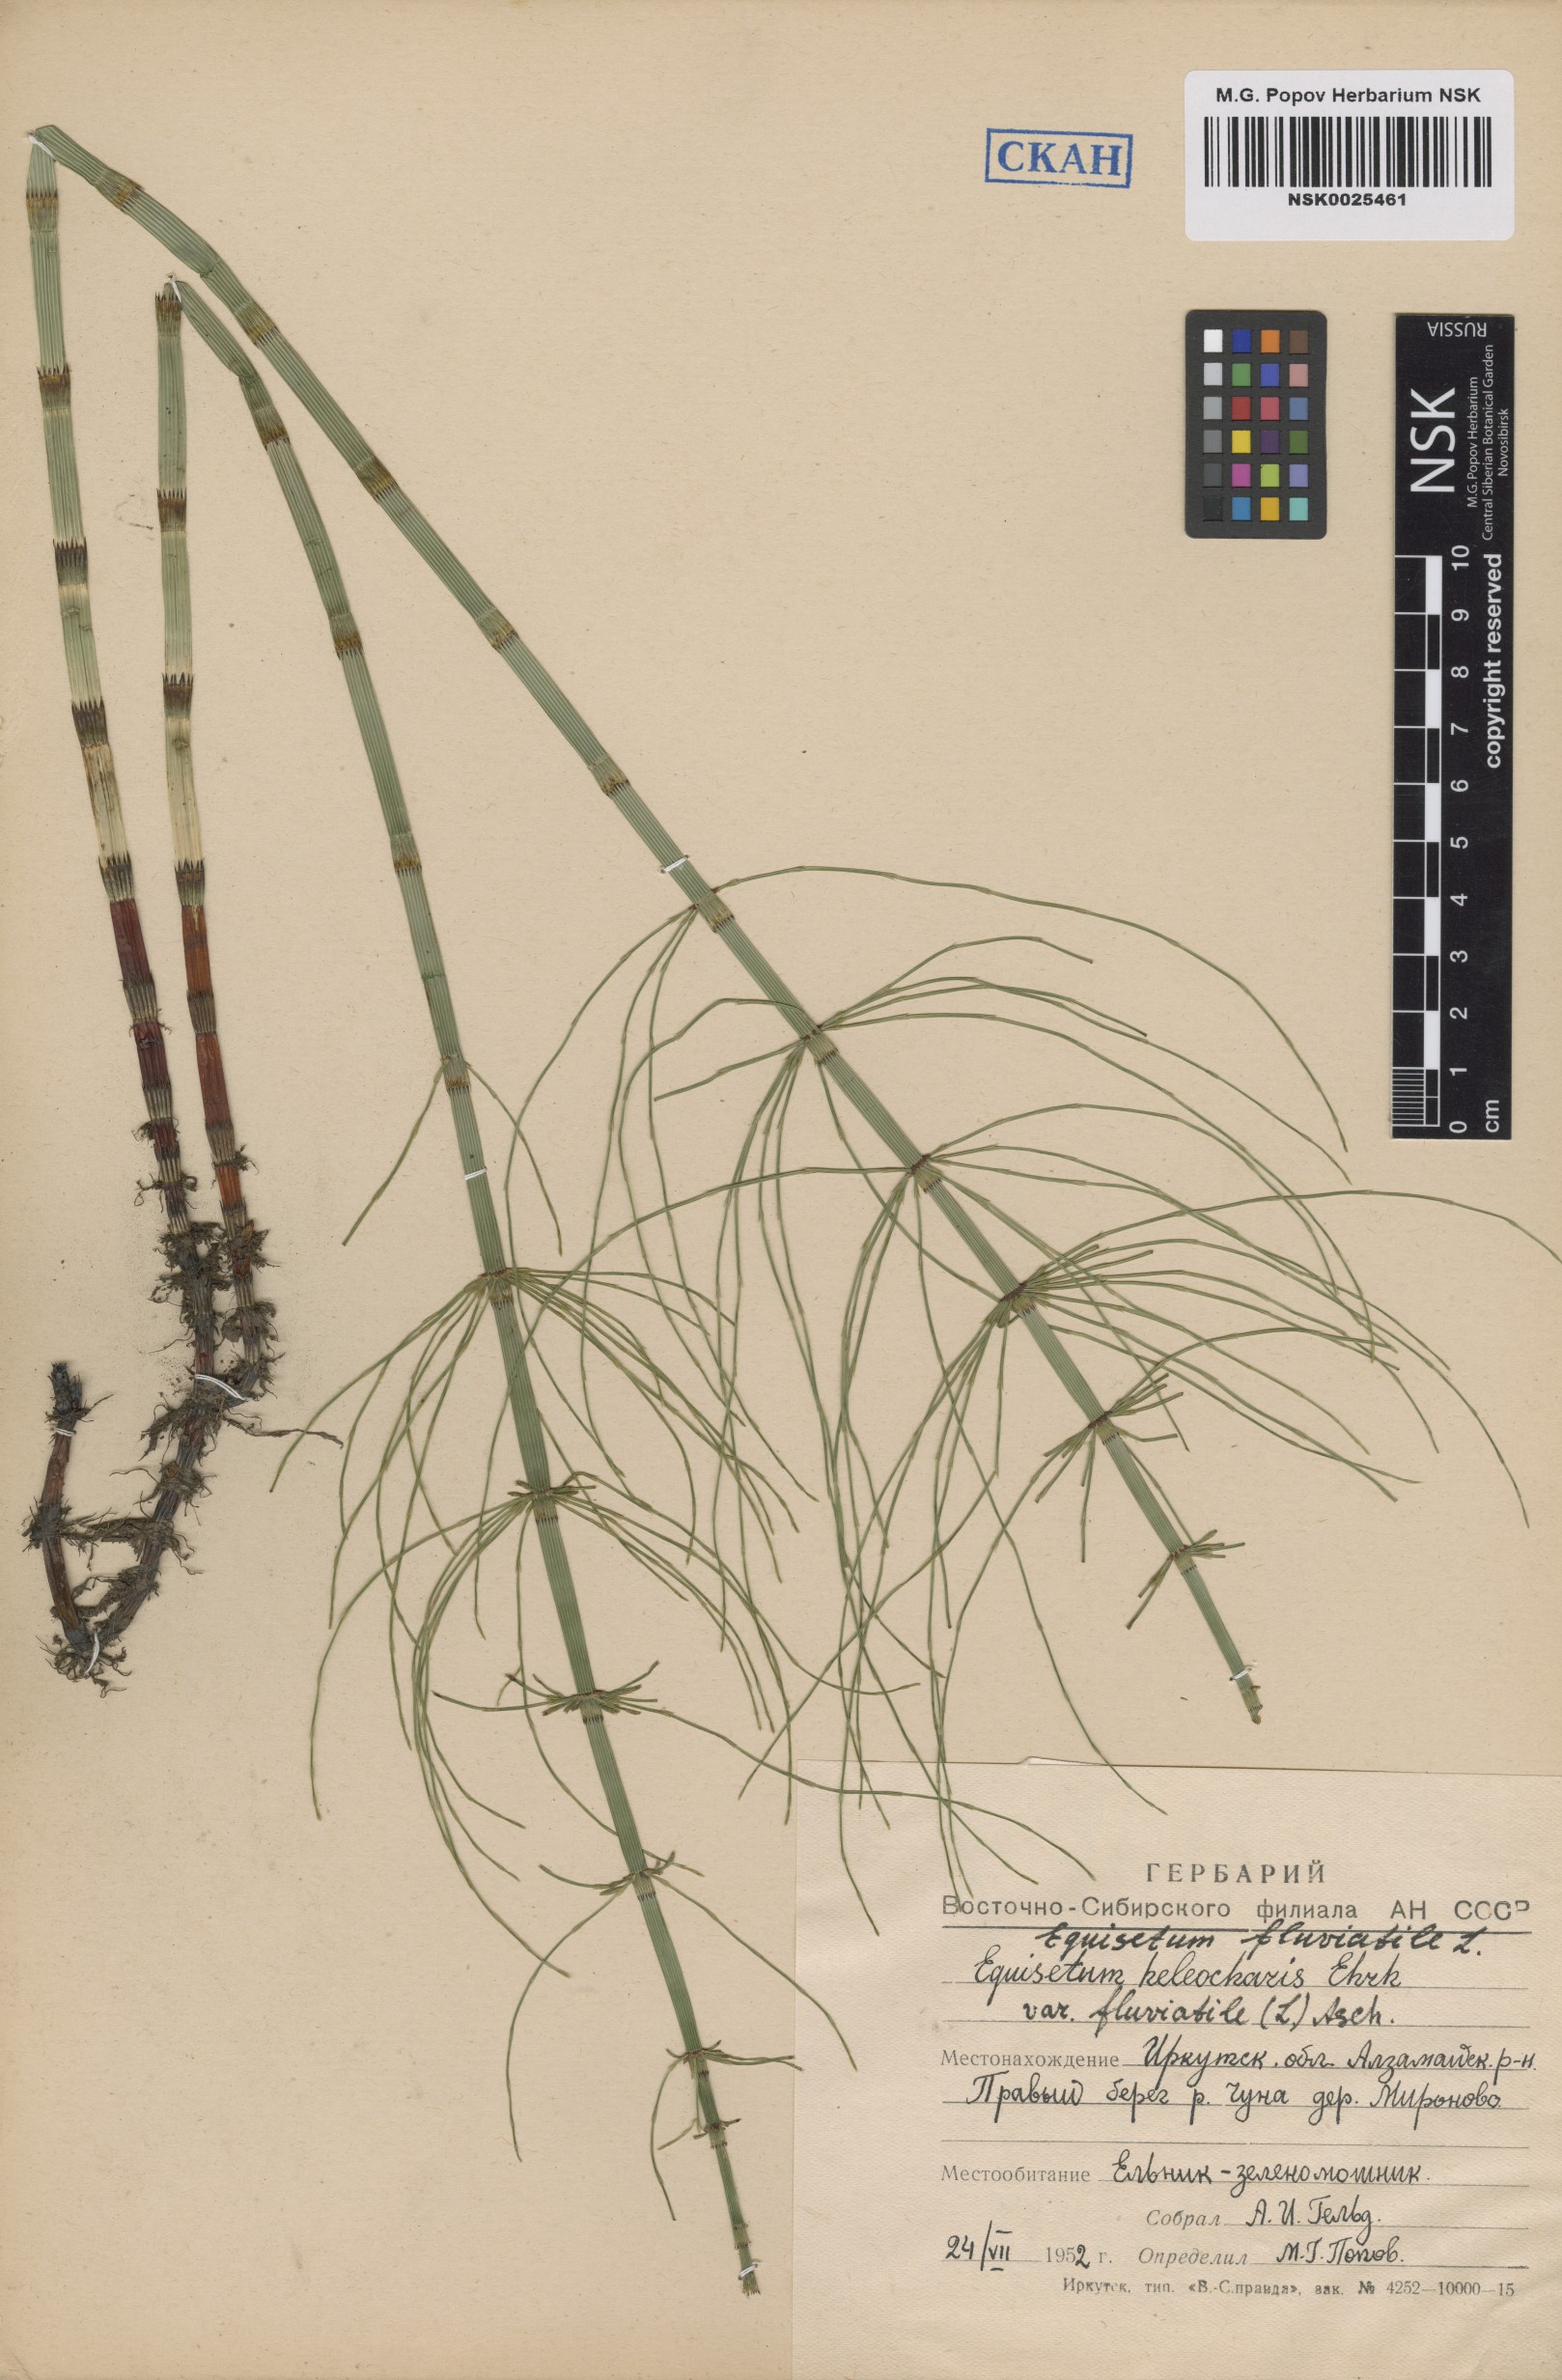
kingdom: Plantae
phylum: Tracheophyta
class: Polypodiopsida
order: Equisetales
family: Equisetaceae
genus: Equisetum
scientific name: Equisetum fluviatile
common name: Water horsetail
